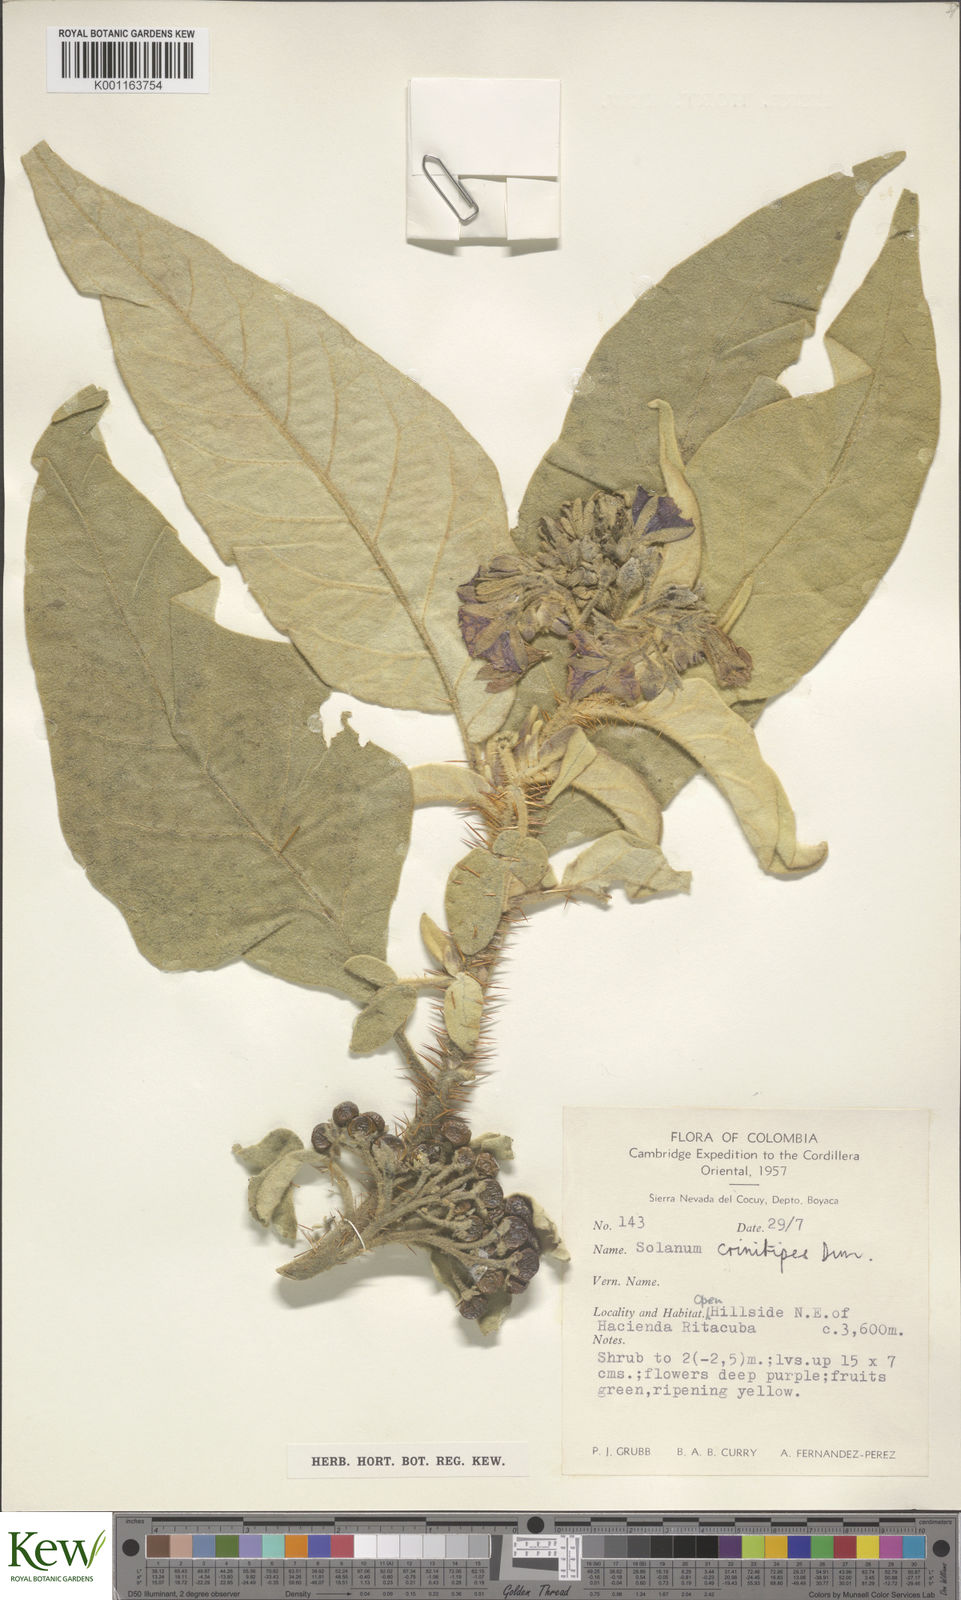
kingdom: Plantae
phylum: Tracheophyta
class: Magnoliopsida
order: Solanales
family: Solanaceae
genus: Solanum
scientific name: Solanum crinitipes
